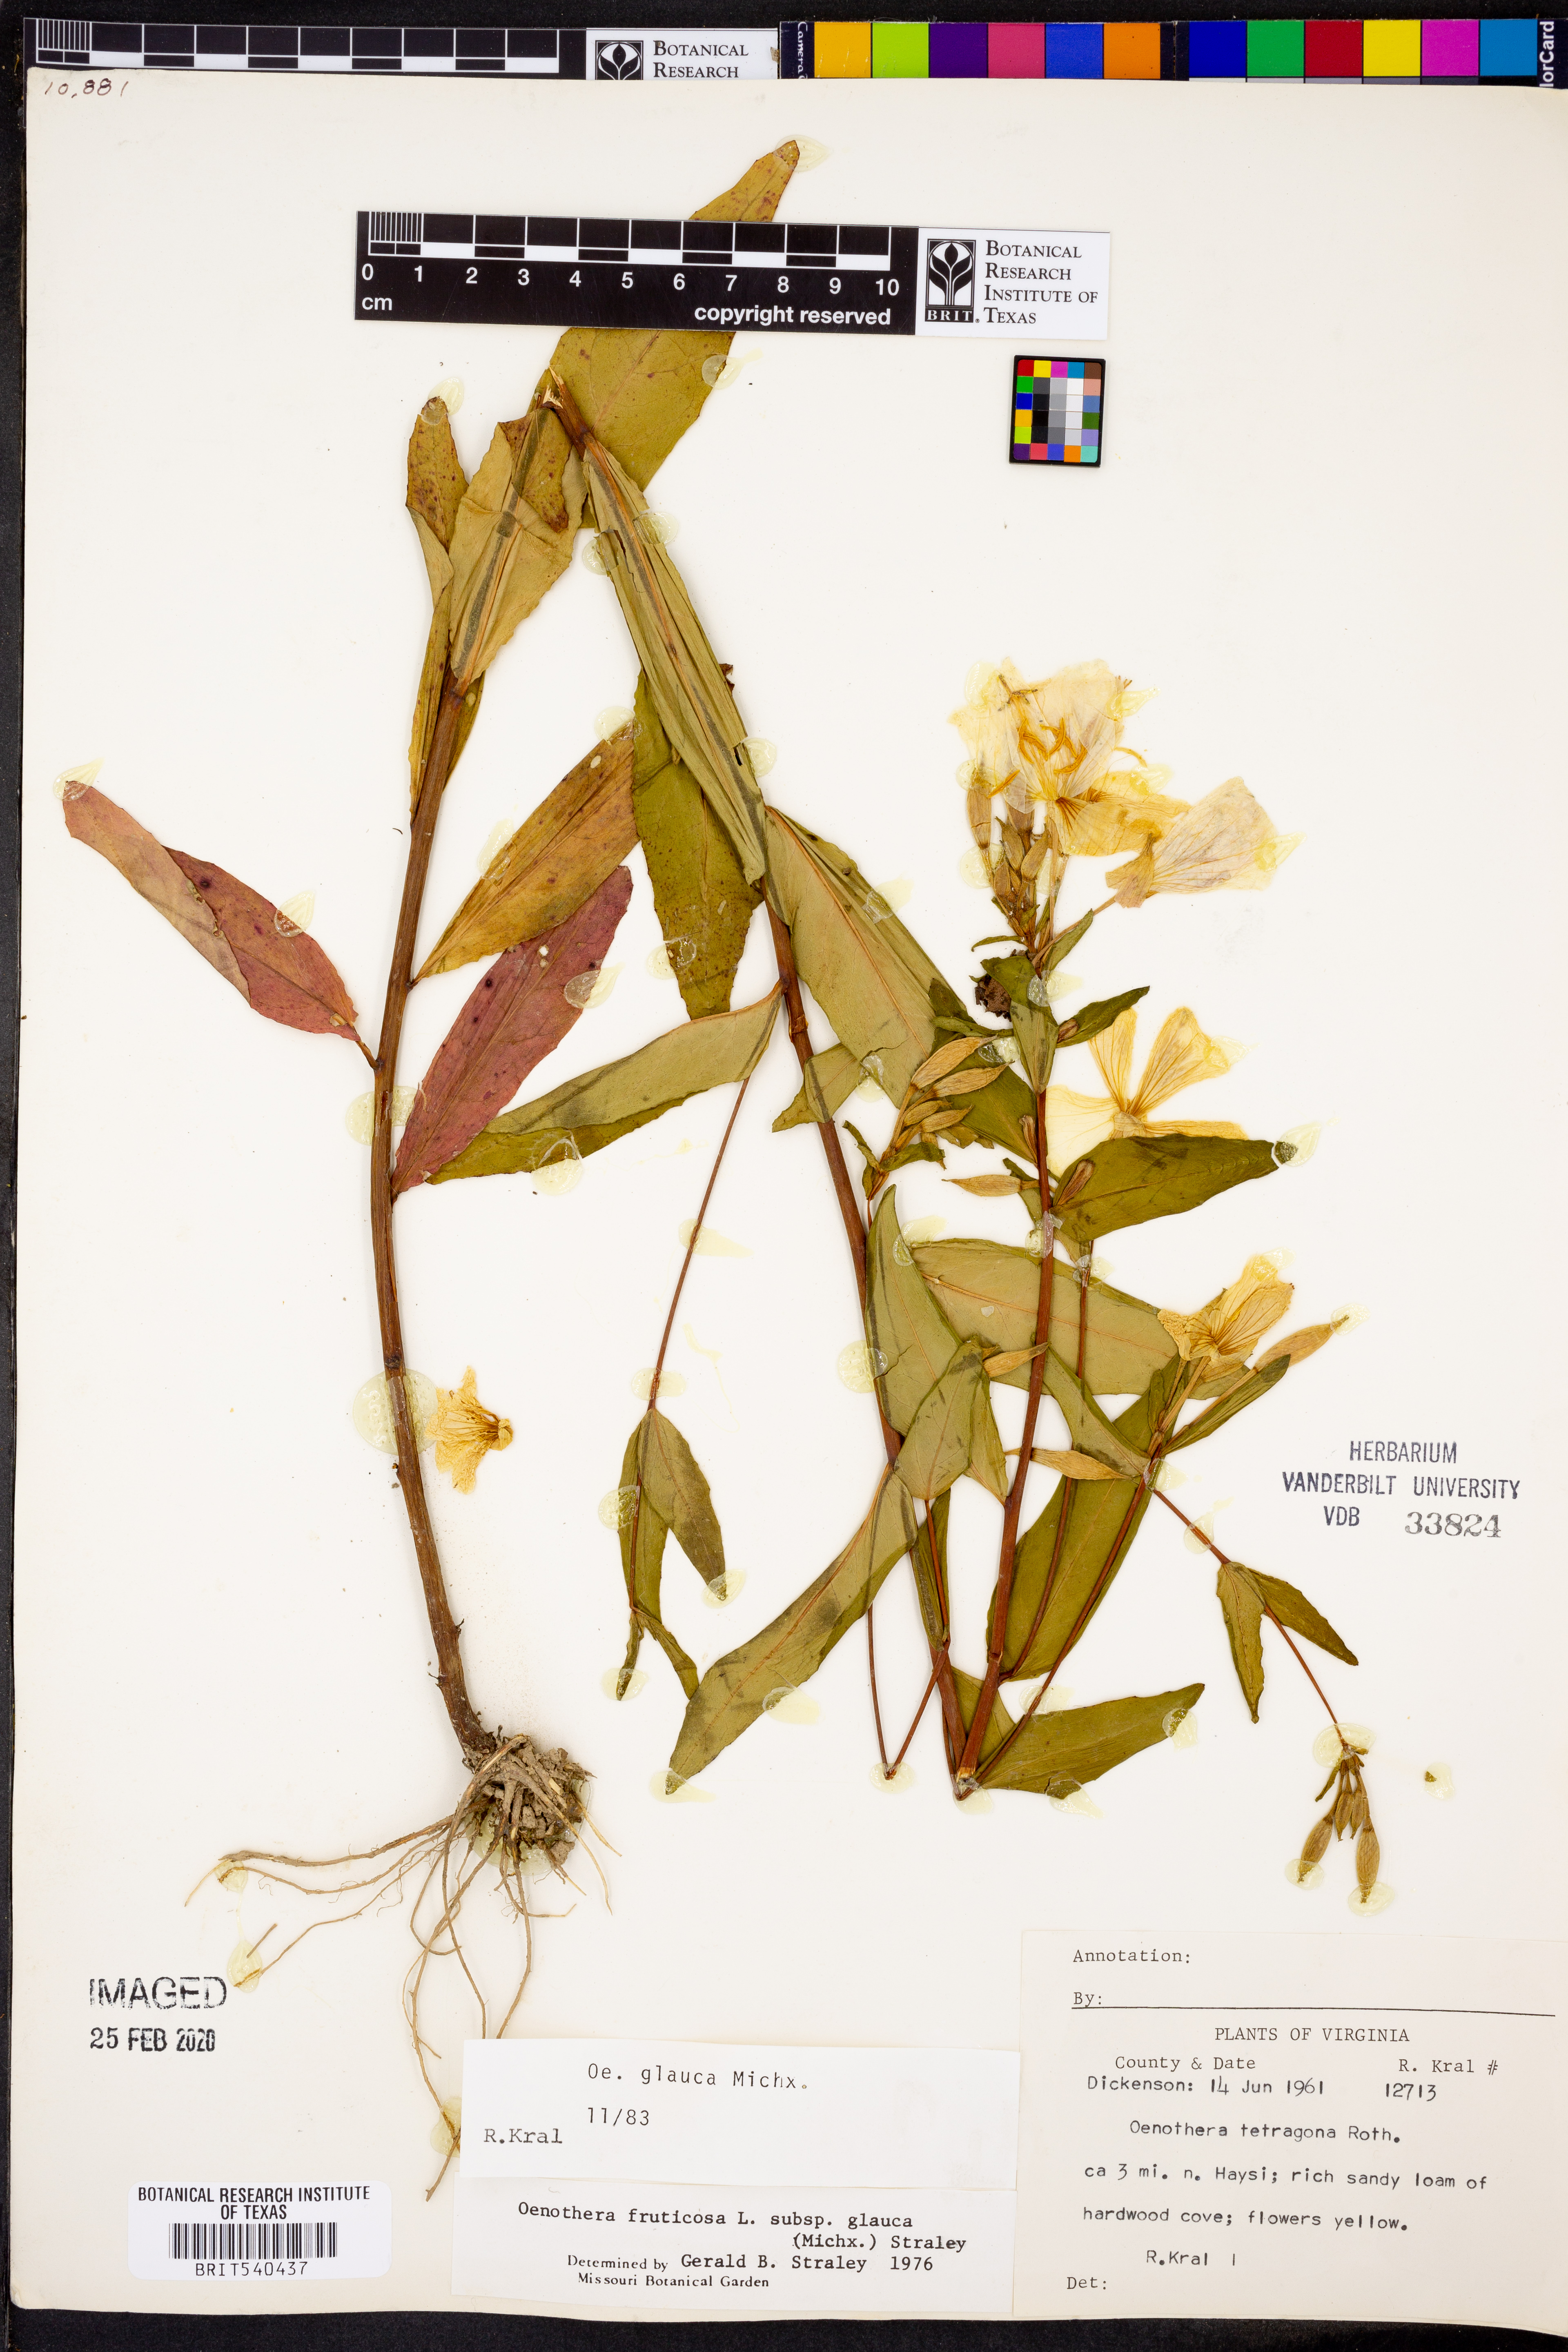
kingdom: Plantae
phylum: Tracheophyta
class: Magnoliopsida
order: Myrtales
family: Onagraceae
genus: Oenothera
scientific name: Oenothera tetragona
